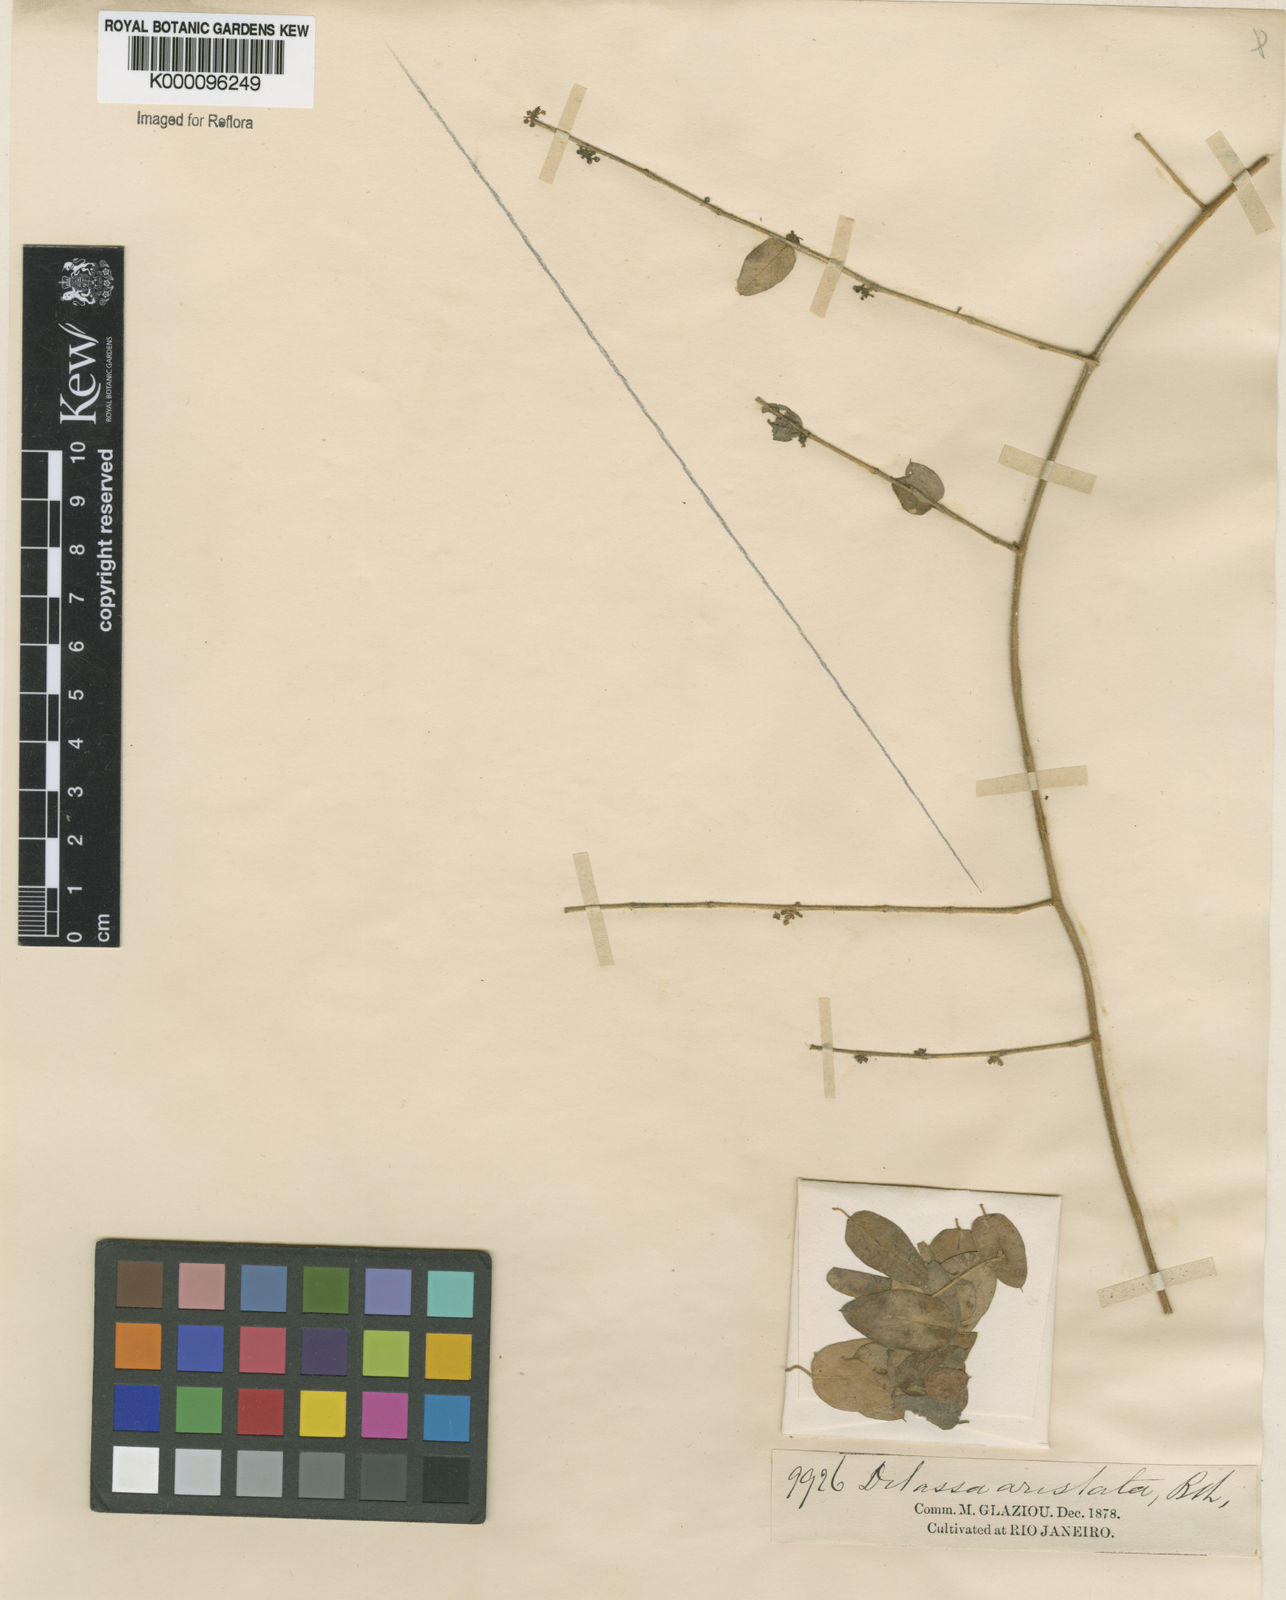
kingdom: Plantae
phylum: Tracheophyta
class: Magnoliopsida
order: Gentianales
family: Apocynaceae
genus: Tassadia
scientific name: Tassadia aristata
